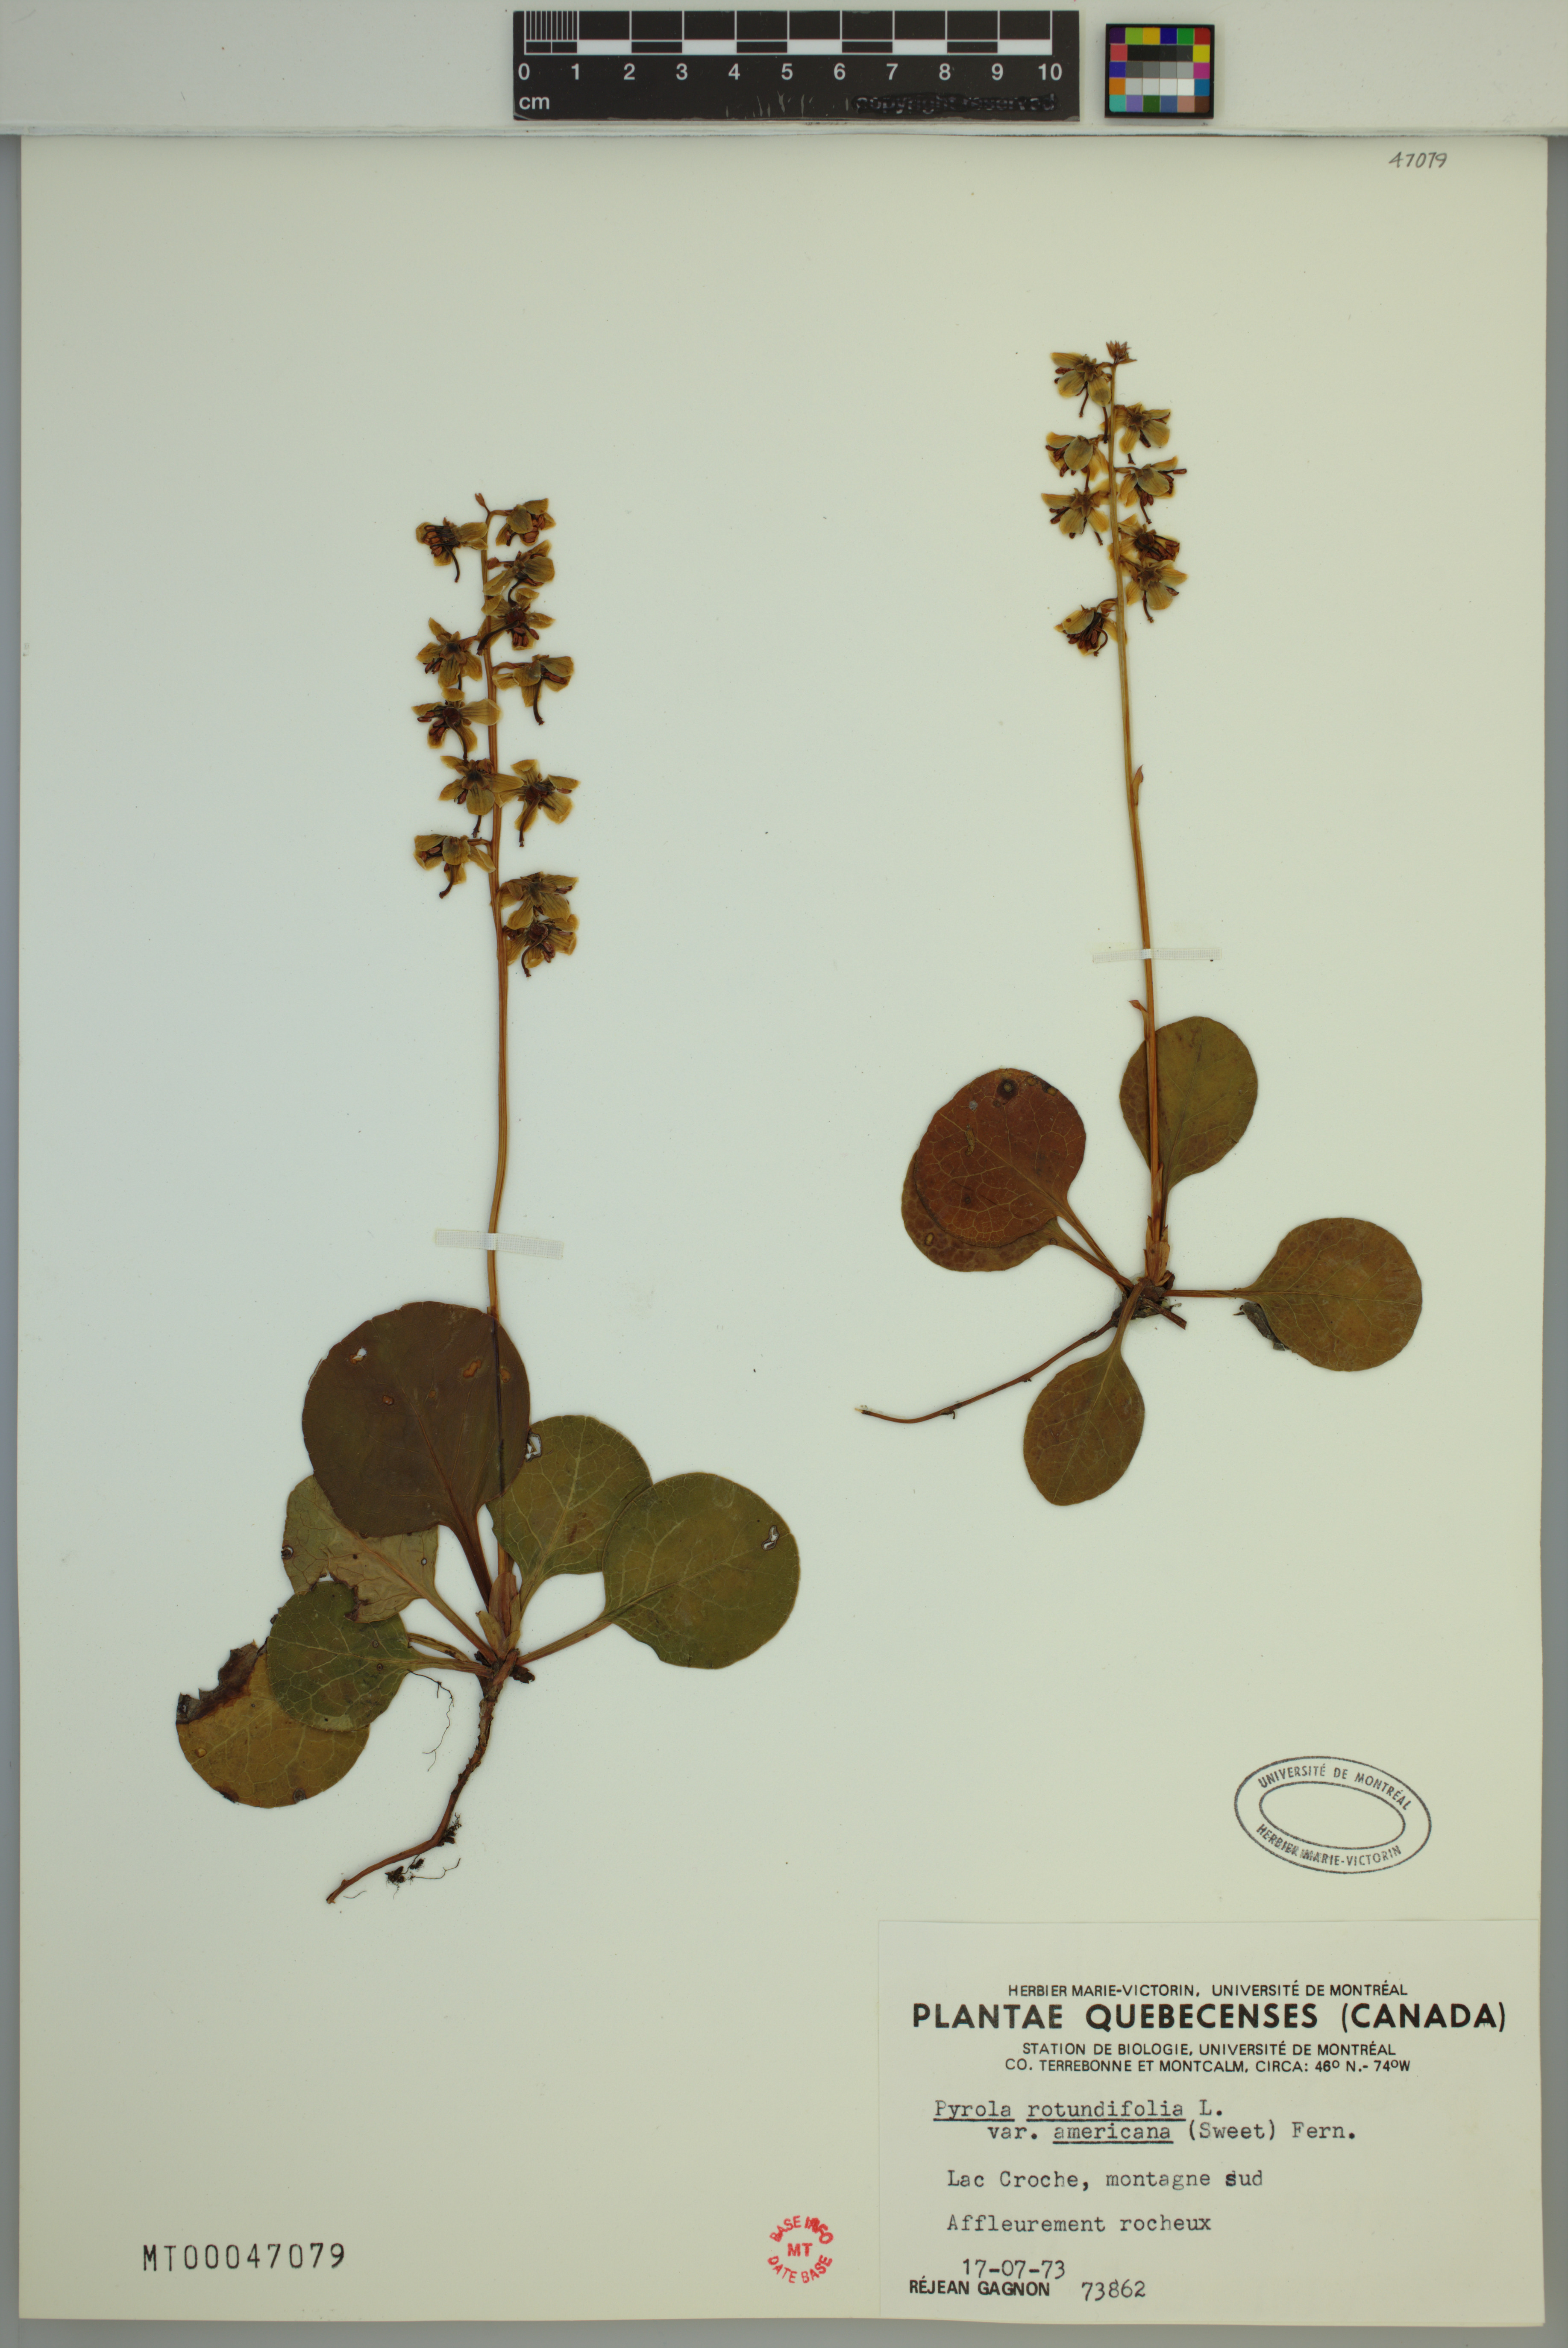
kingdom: Plantae
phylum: Tracheophyta
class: Magnoliopsida
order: Ericales
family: Ericaceae
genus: Pyrola
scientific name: Pyrola americana
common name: American wintergreen
